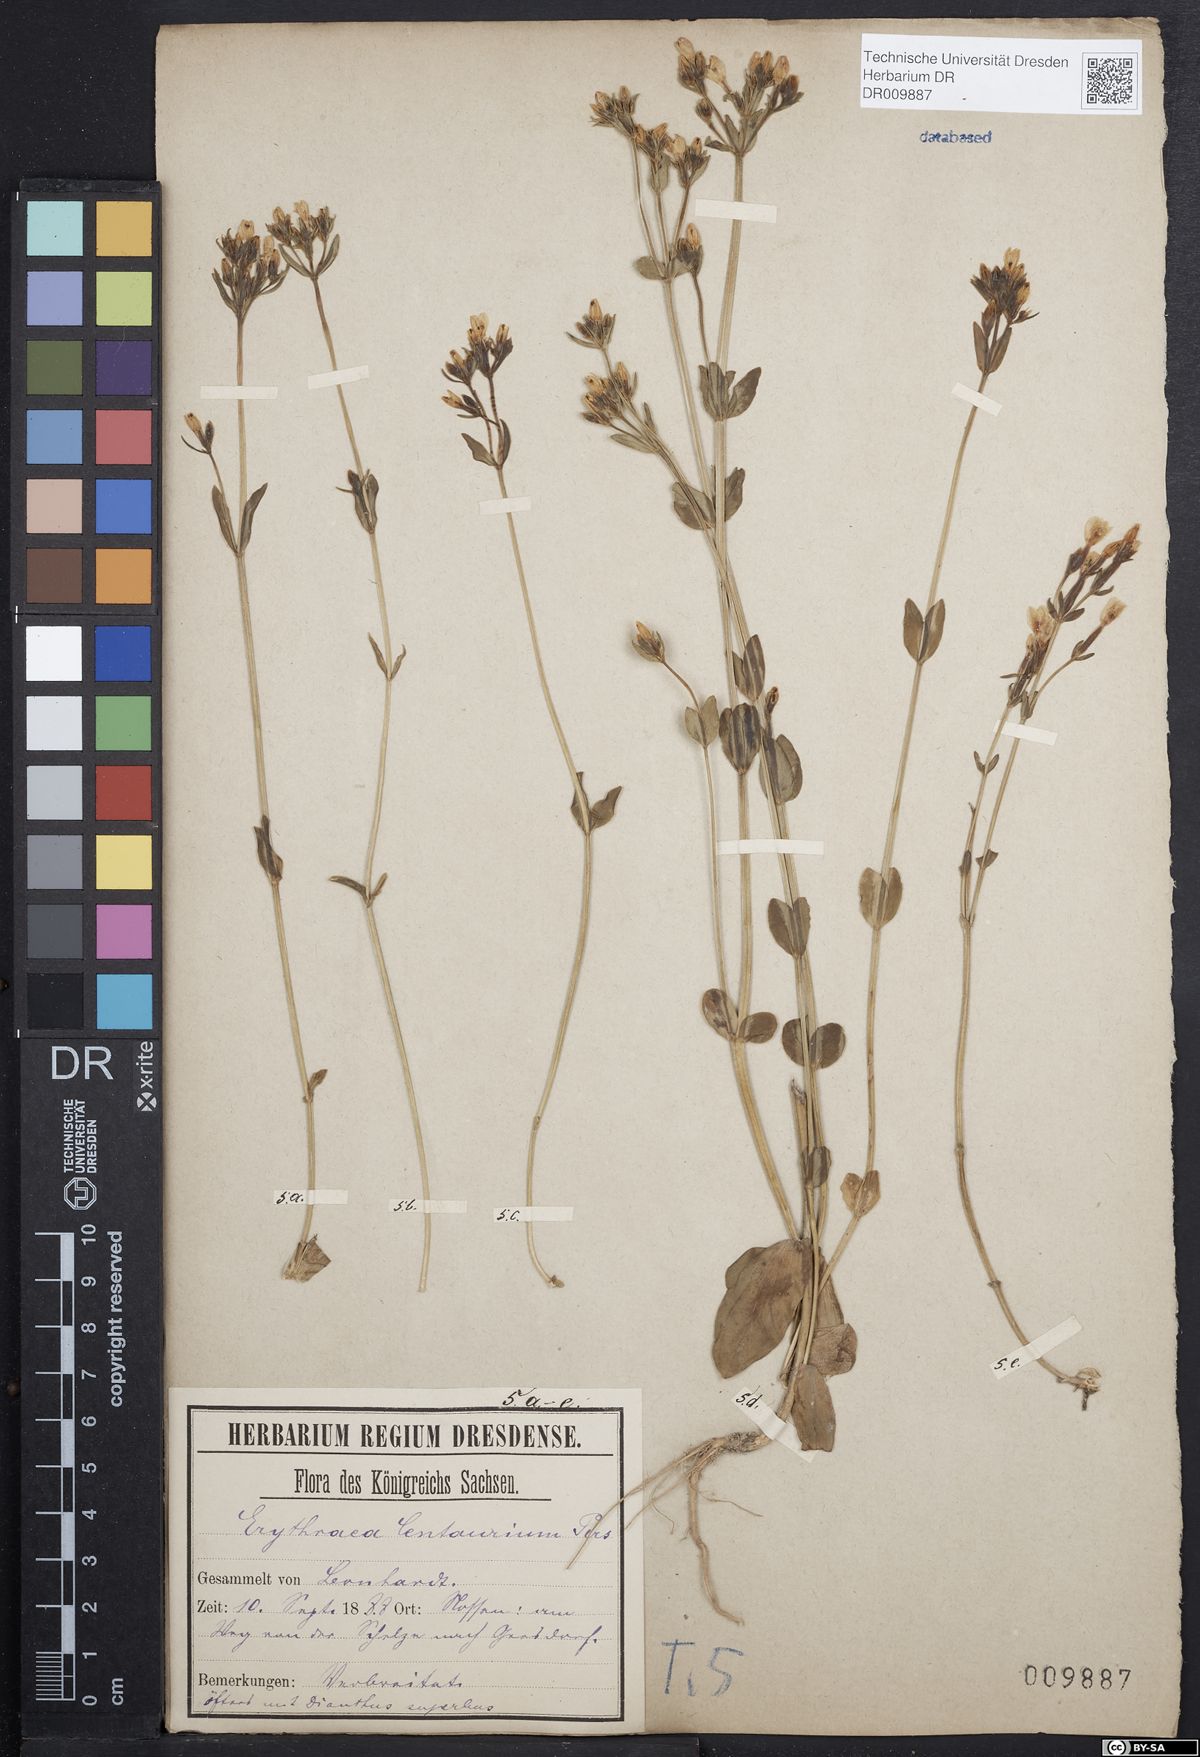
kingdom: Plantae
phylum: Tracheophyta
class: Magnoliopsida
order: Gentianales
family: Gentianaceae
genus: Centaurium
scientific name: Centaurium erythraea
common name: Common centaury
